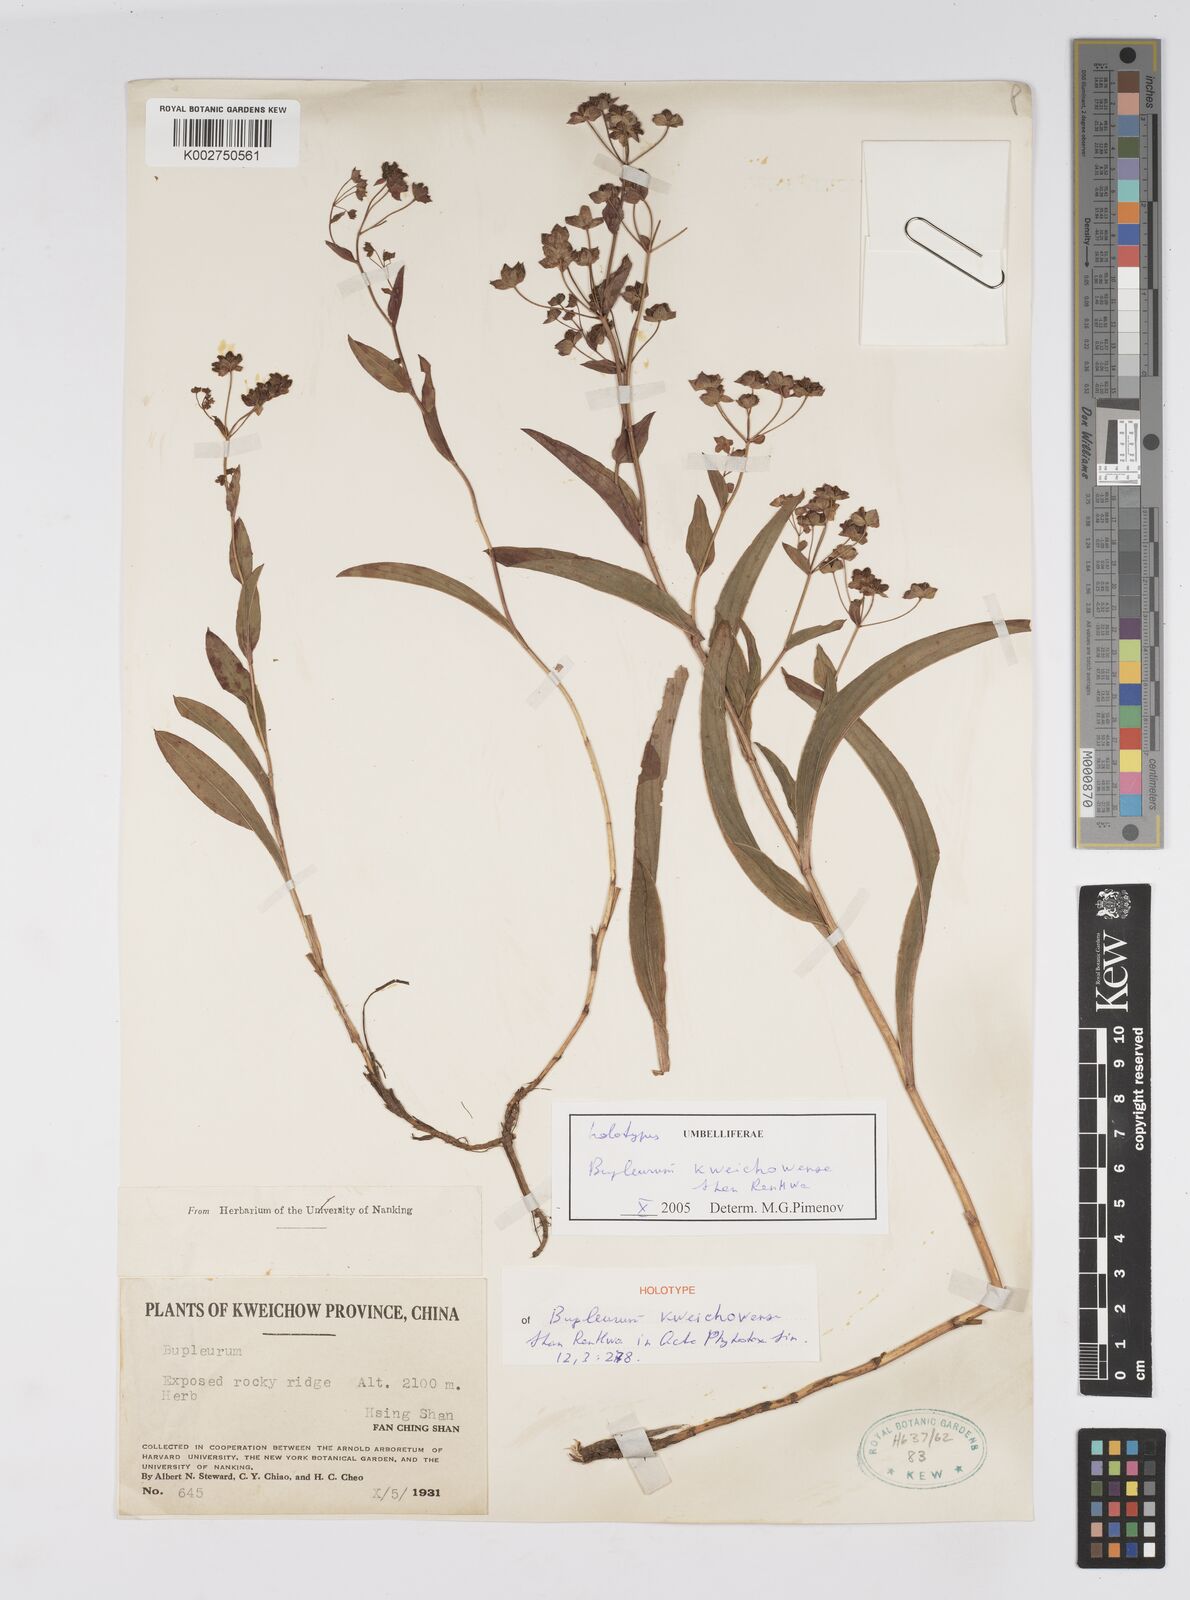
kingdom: Plantae
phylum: Tracheophyta
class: Magnoliopsida
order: Apiales
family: Apiaceae
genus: Bupleurum
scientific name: Bupleurum
